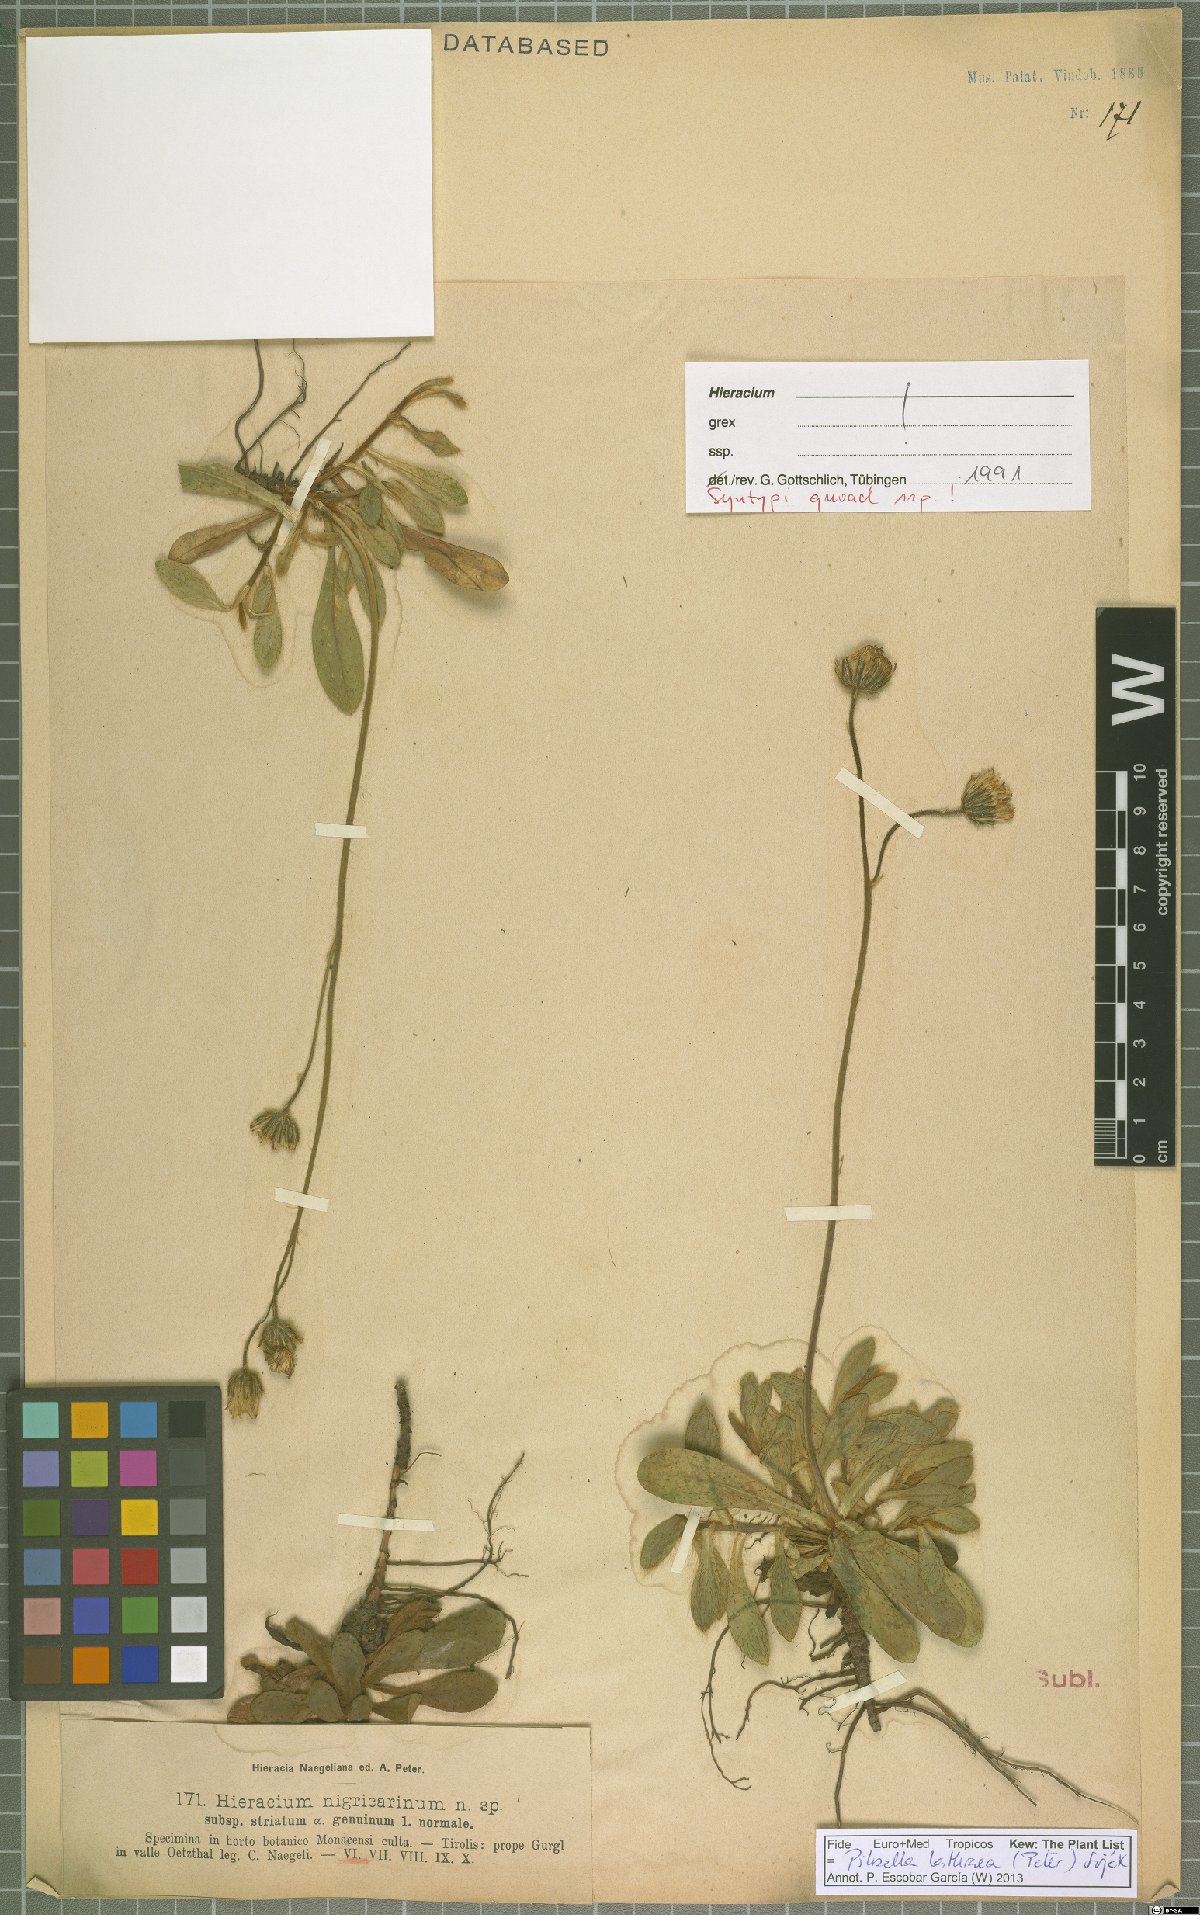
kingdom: Plantae
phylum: Tracheophyta
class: Magnoliopsida
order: Asterales
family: Asteraceae
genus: Pilosella
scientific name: Pilosella lathraea
